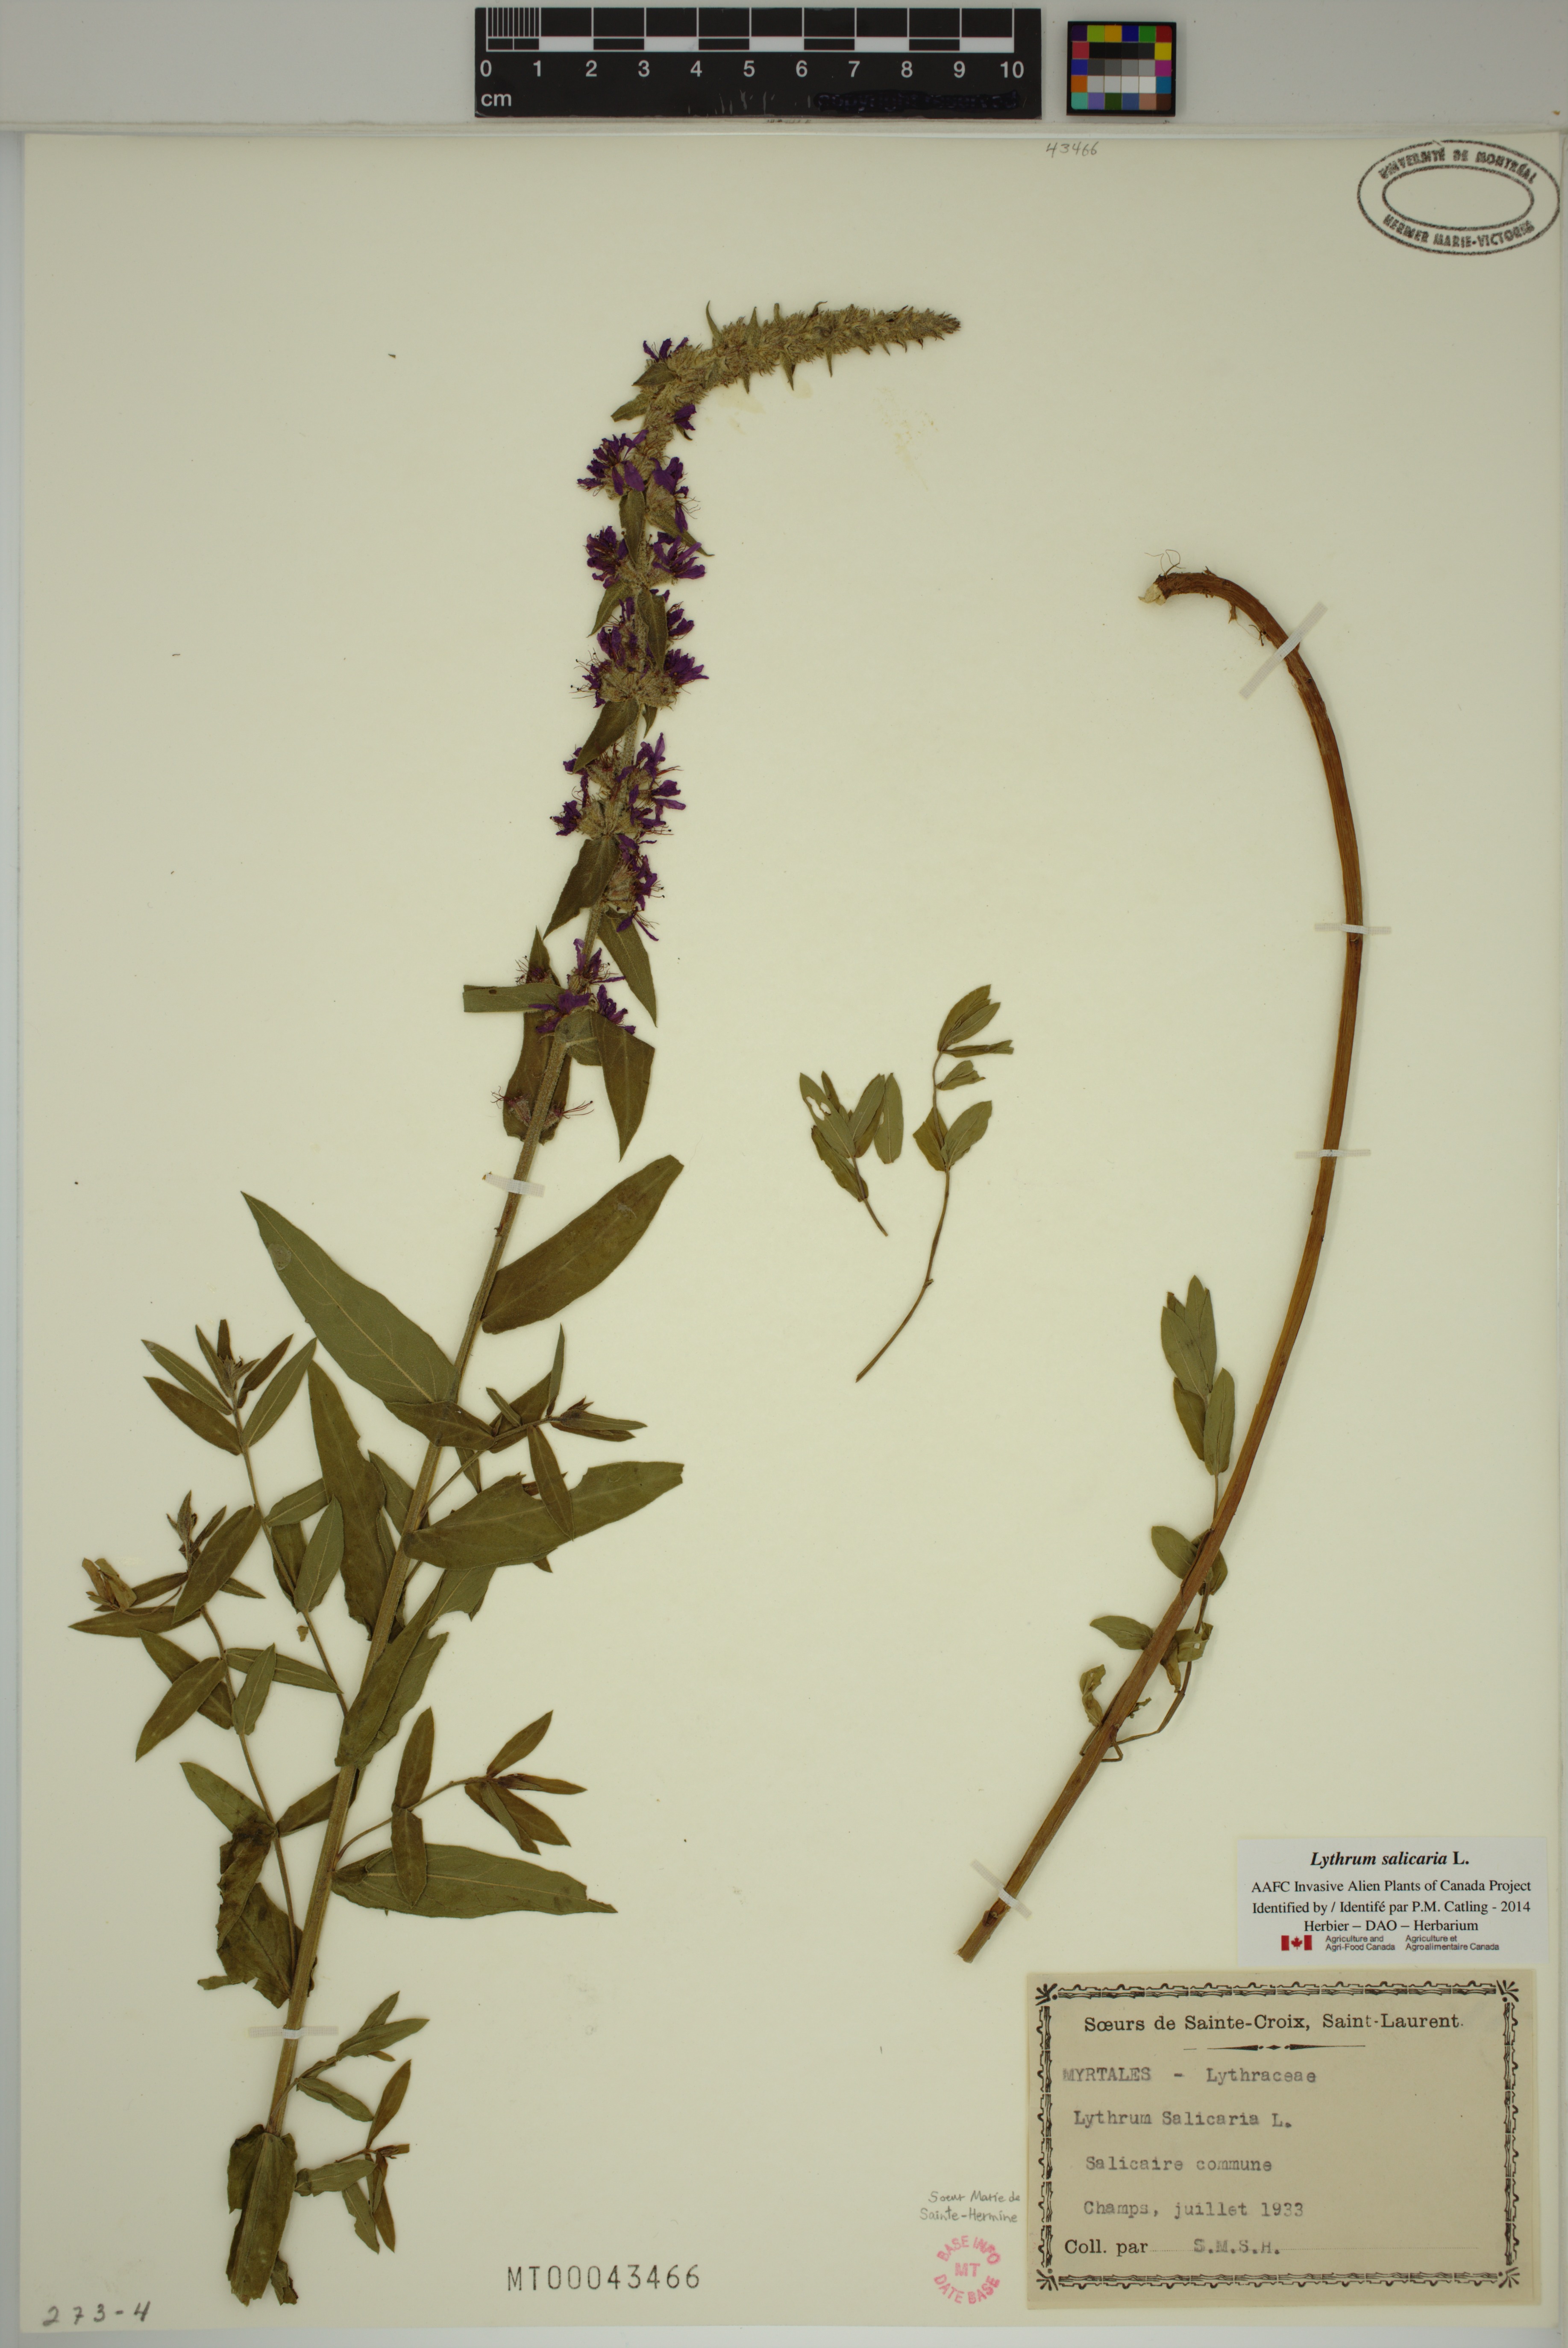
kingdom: Plantae
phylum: Tracheophyta
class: Magnoliopsida
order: Myrtales
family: Lythraceae
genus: Lythrum
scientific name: Lythrum salicaria
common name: Purple loosestrife
